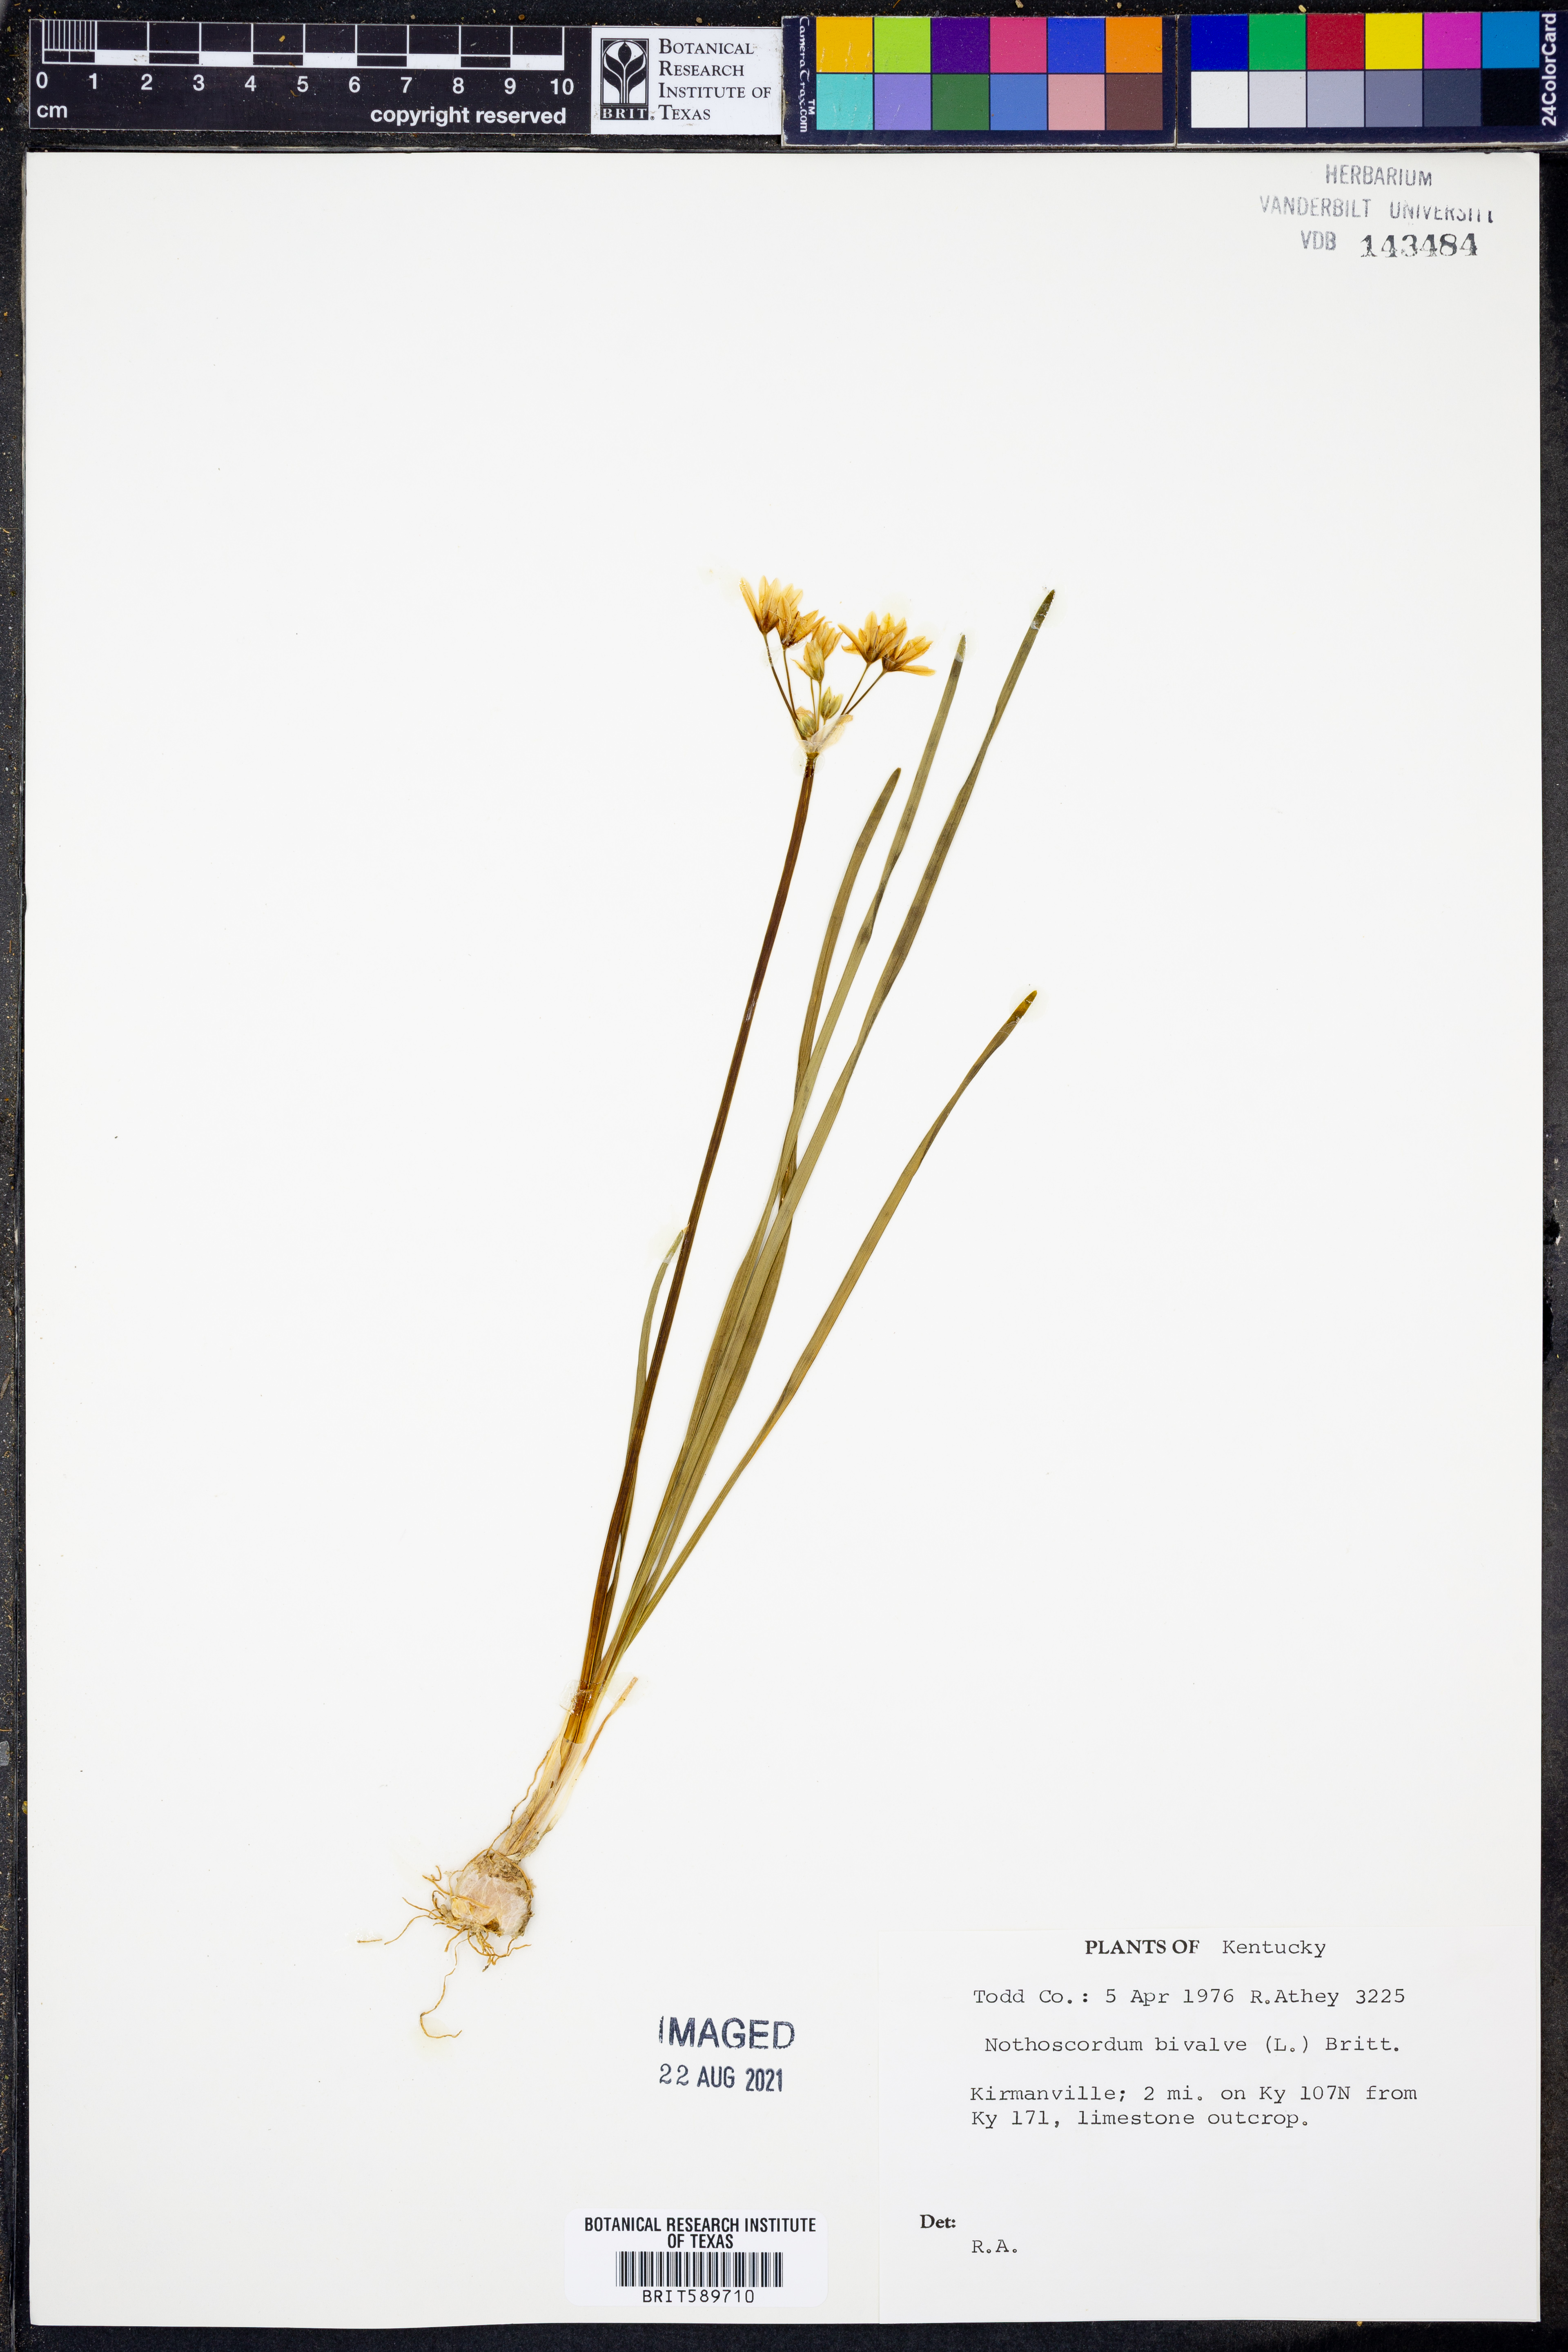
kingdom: Plantae
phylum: Tracheophyta
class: Liliopsida
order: Asparagales
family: Amaryllidaceae
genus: Nothoscordum
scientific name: Nothoscordum bivalve
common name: Crow-poison
